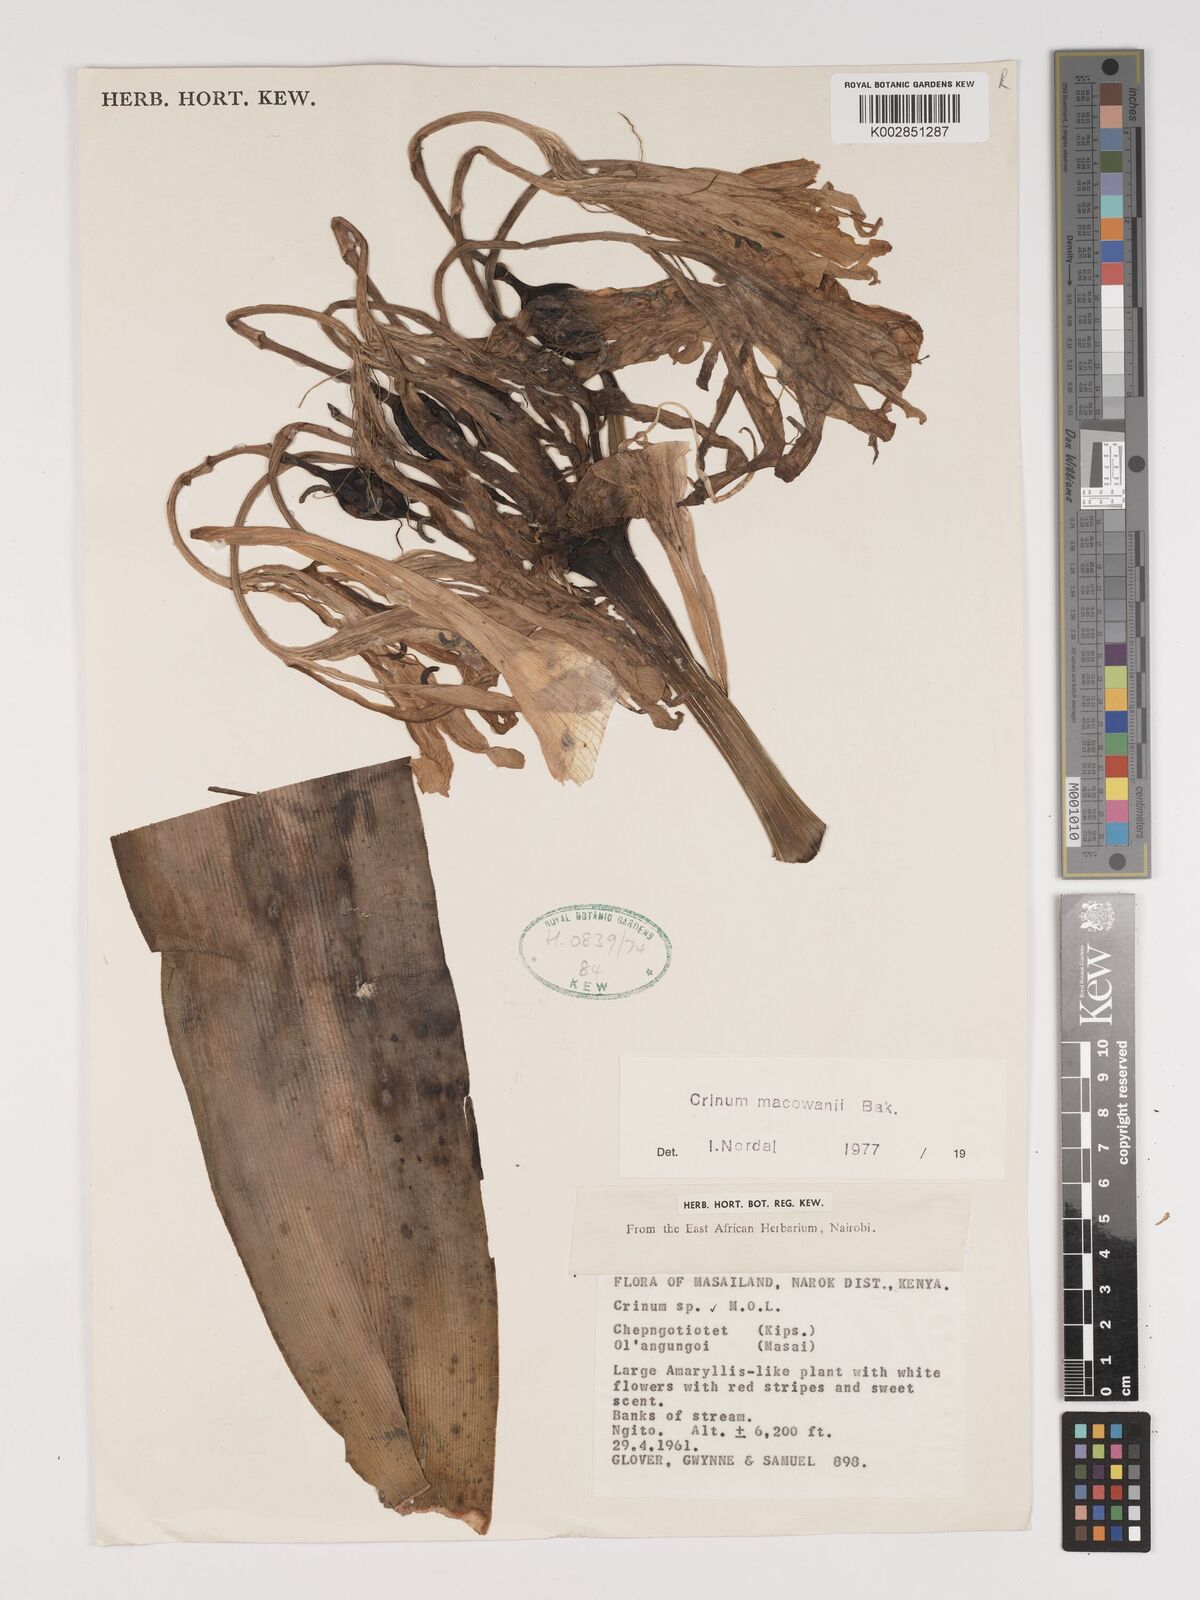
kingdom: Plantae
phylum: Tracheophyta
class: Liliopsida
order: Asparagales
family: Amaryllidaceae
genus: Crinum
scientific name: Crinum macowanii
